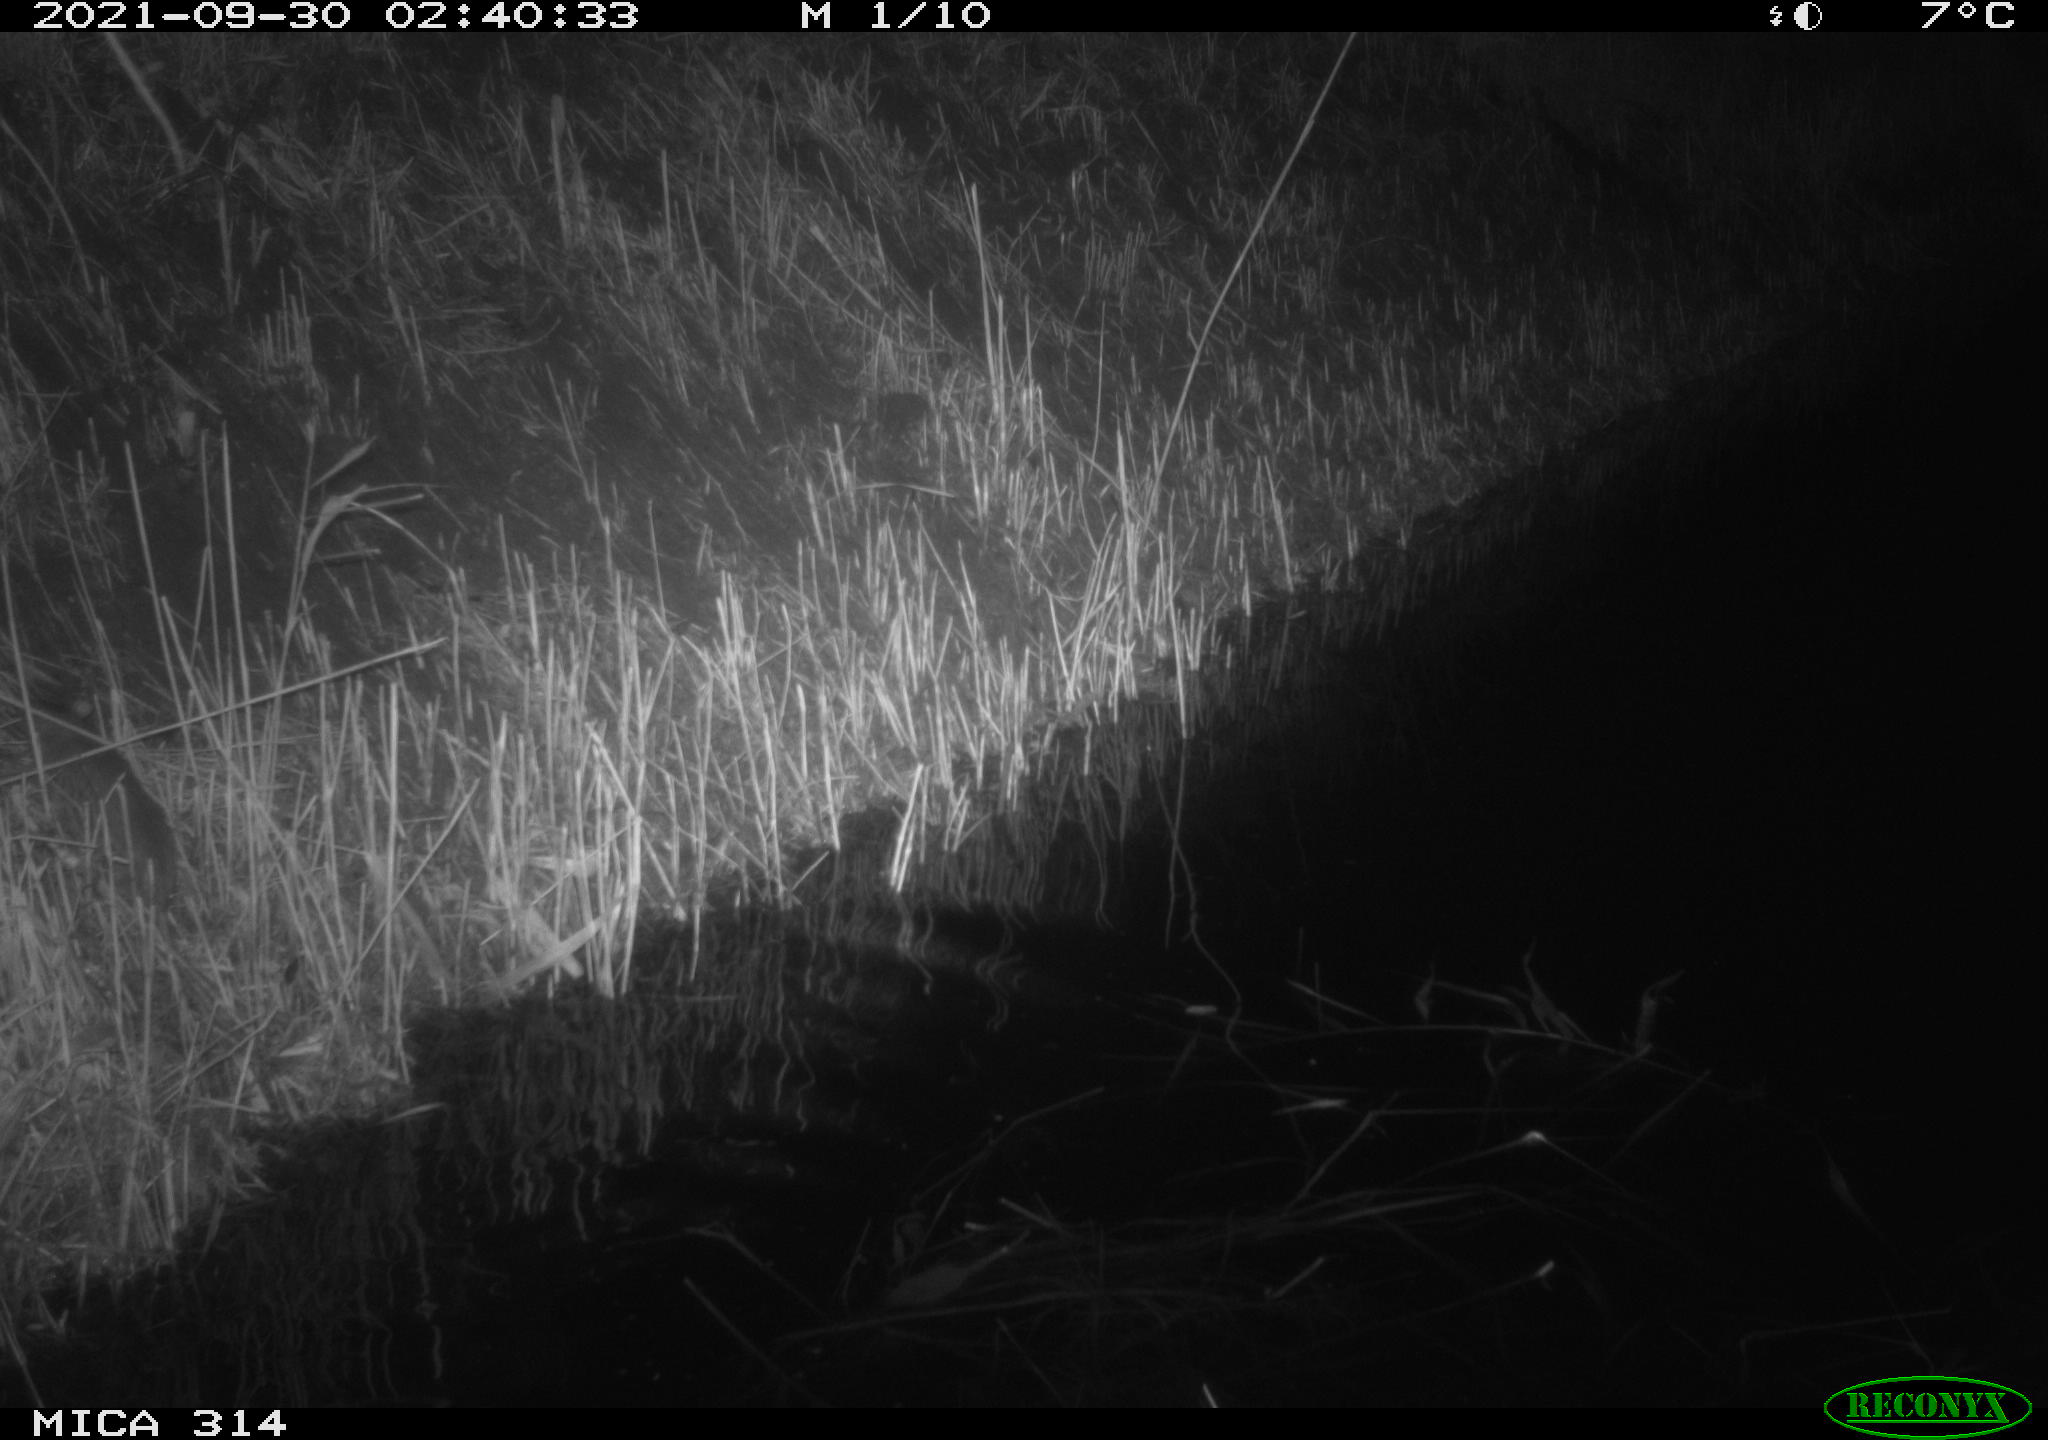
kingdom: Animalia
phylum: Chordata
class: Mammalia
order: Rodentia
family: Muridae
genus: Rattus
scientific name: Rattus norvegicus
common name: Brown rat
